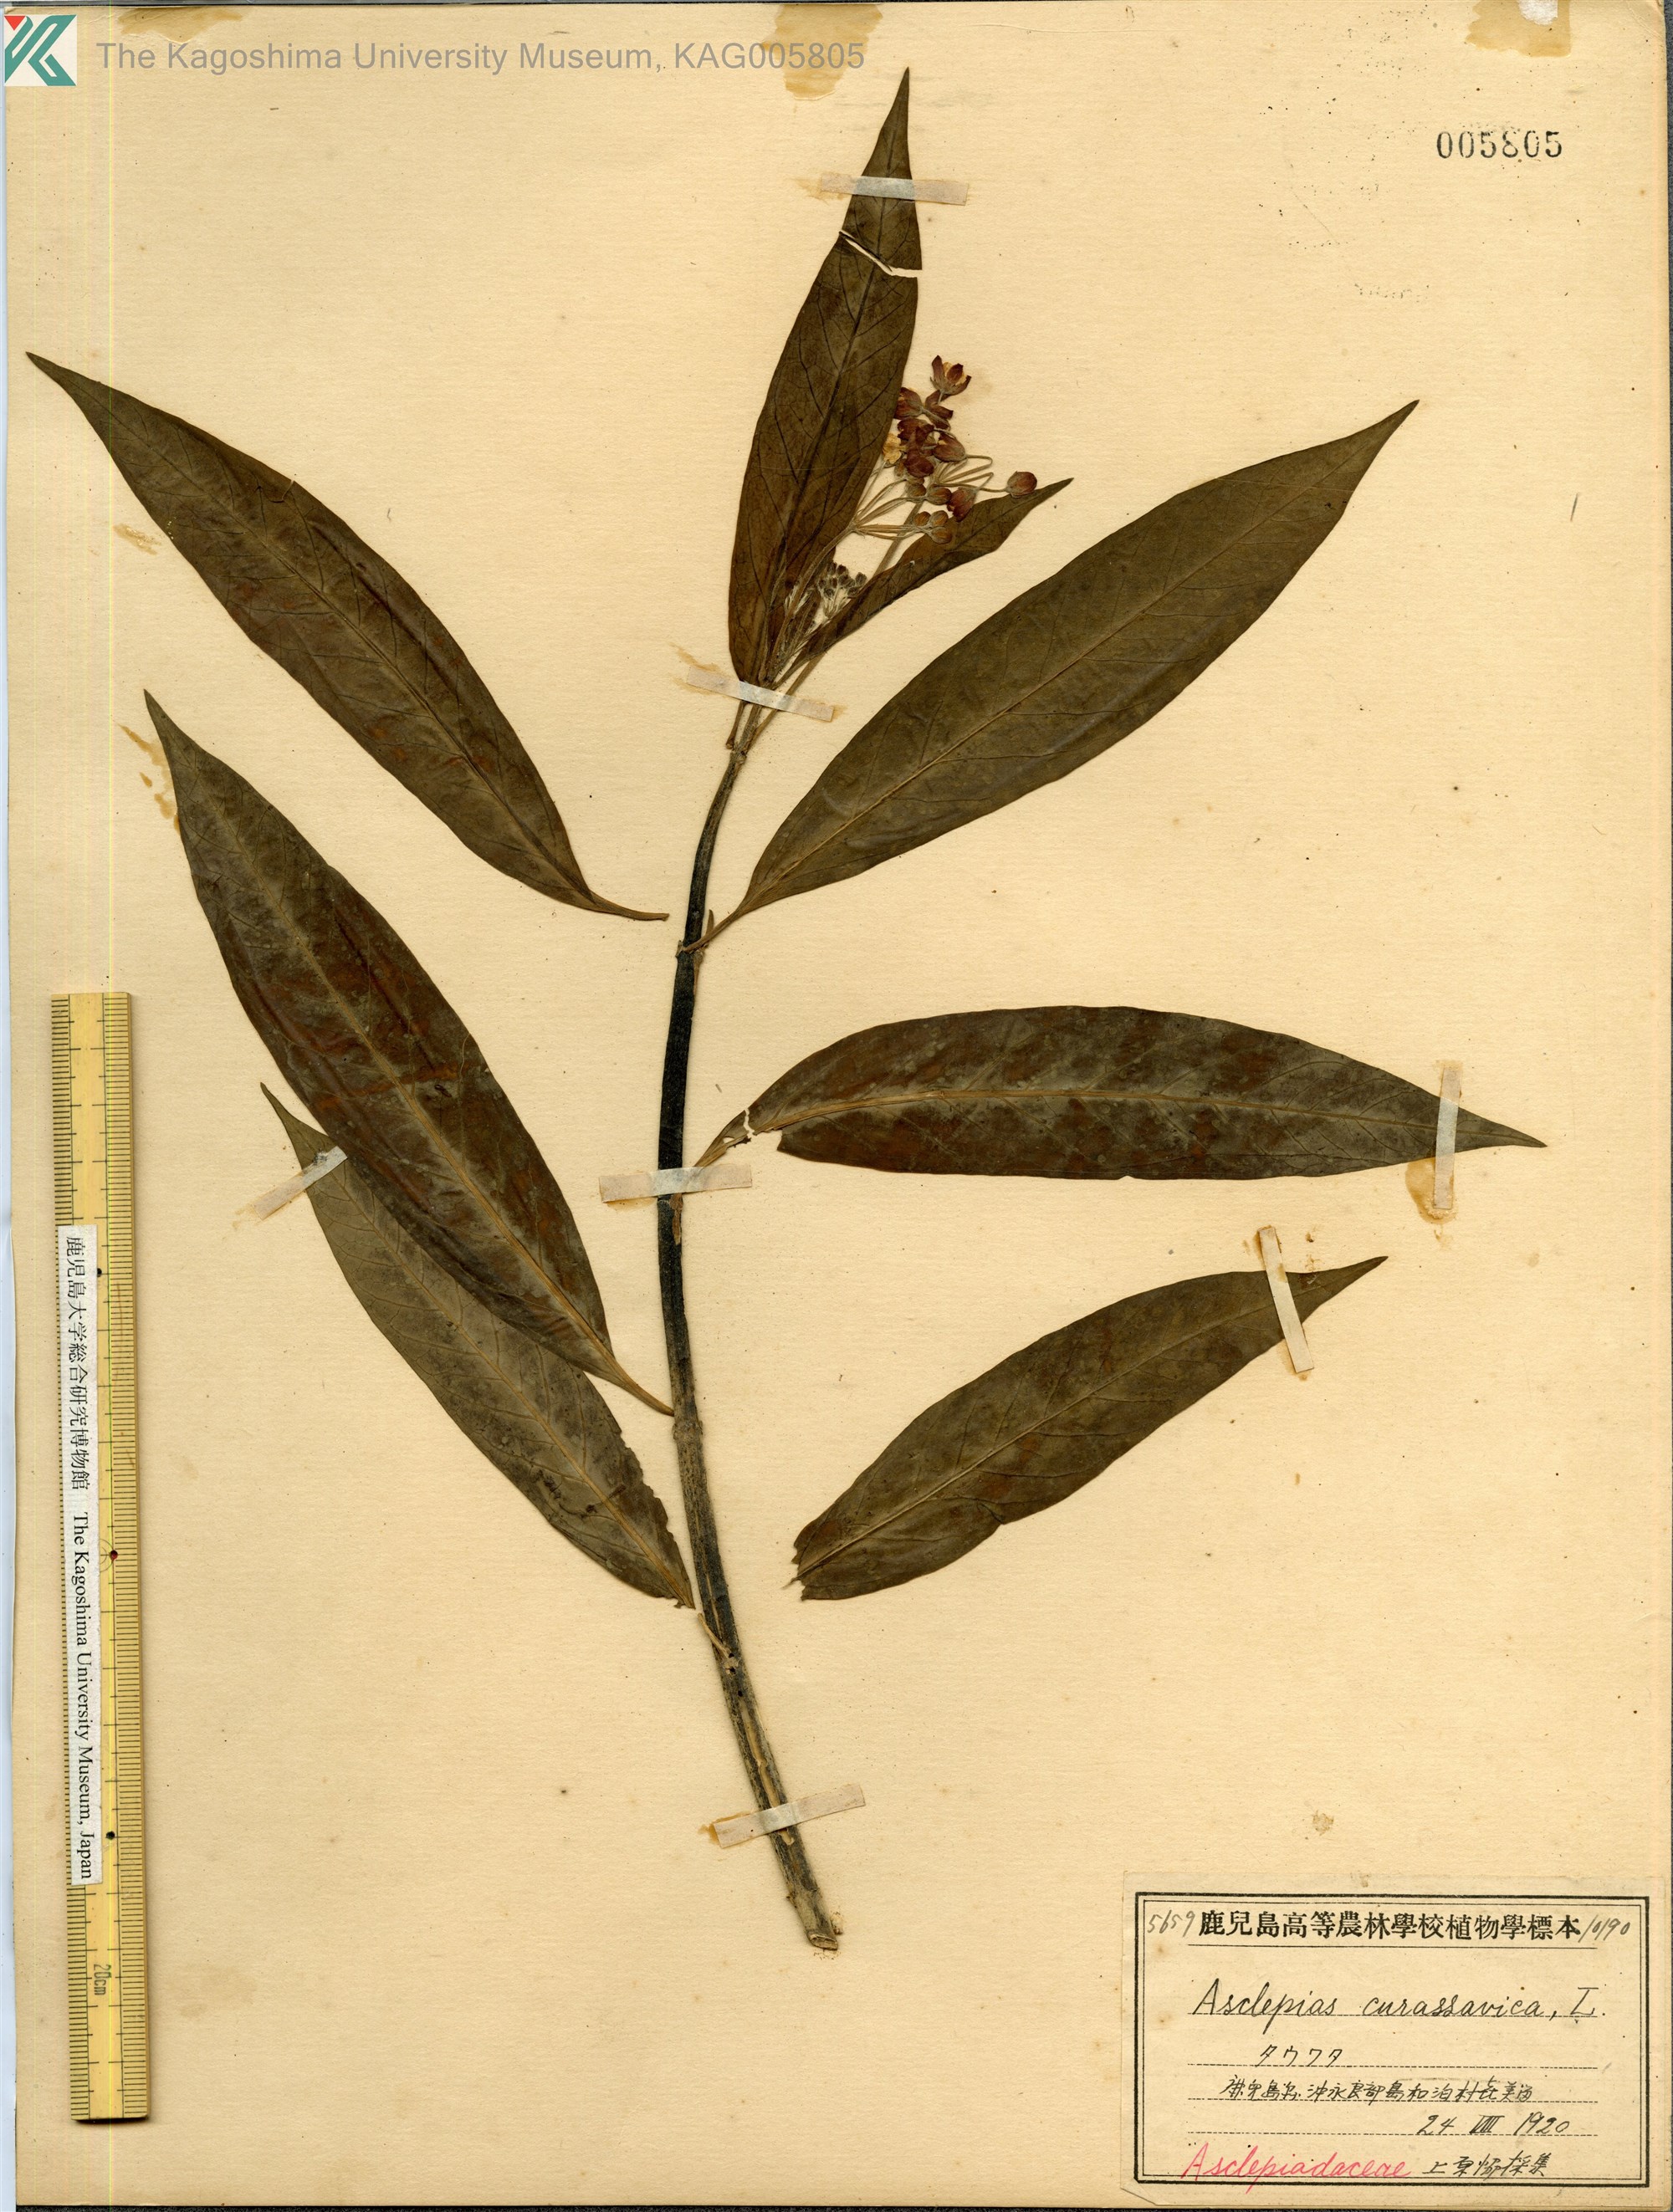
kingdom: Plantae
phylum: Tracheophyta
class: Magnoliopsida
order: Gentianales
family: Apocynaceae
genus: Asclepias
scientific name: Asclepias
